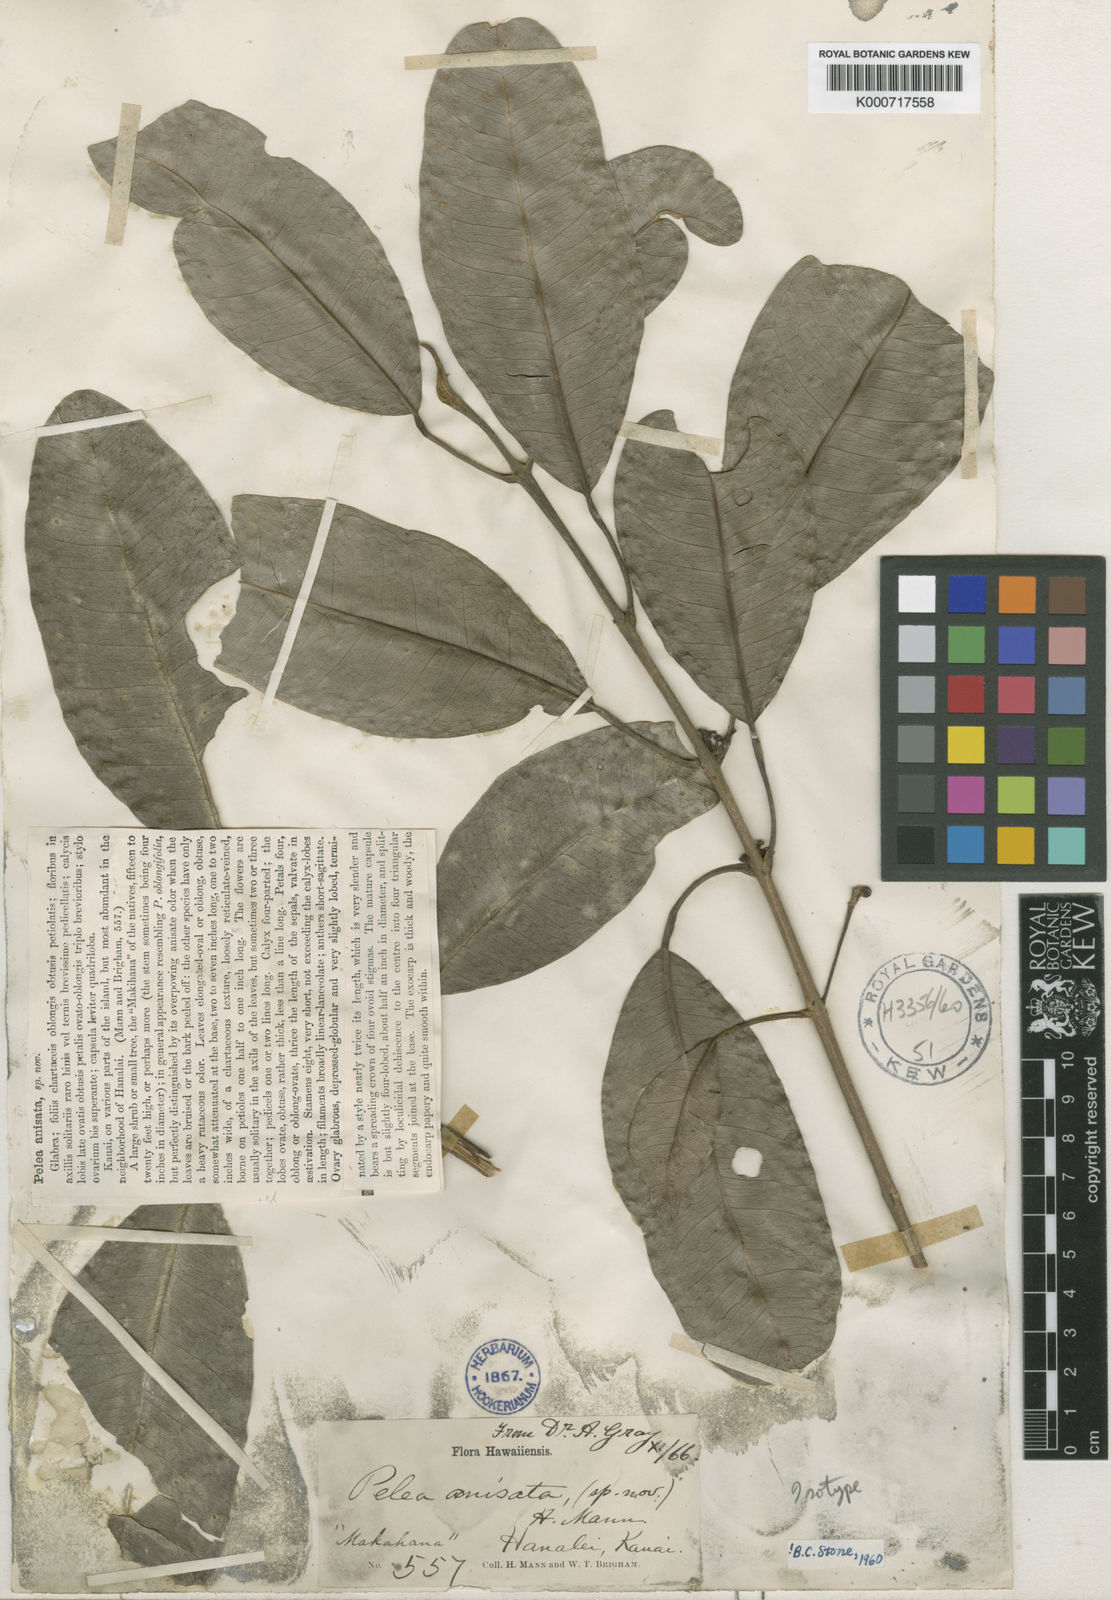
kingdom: Plantae
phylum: Tracheophyta
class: Magnoliopsida
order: Sapindales
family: Rutaceae
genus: Melicope
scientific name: Melicope anisata
